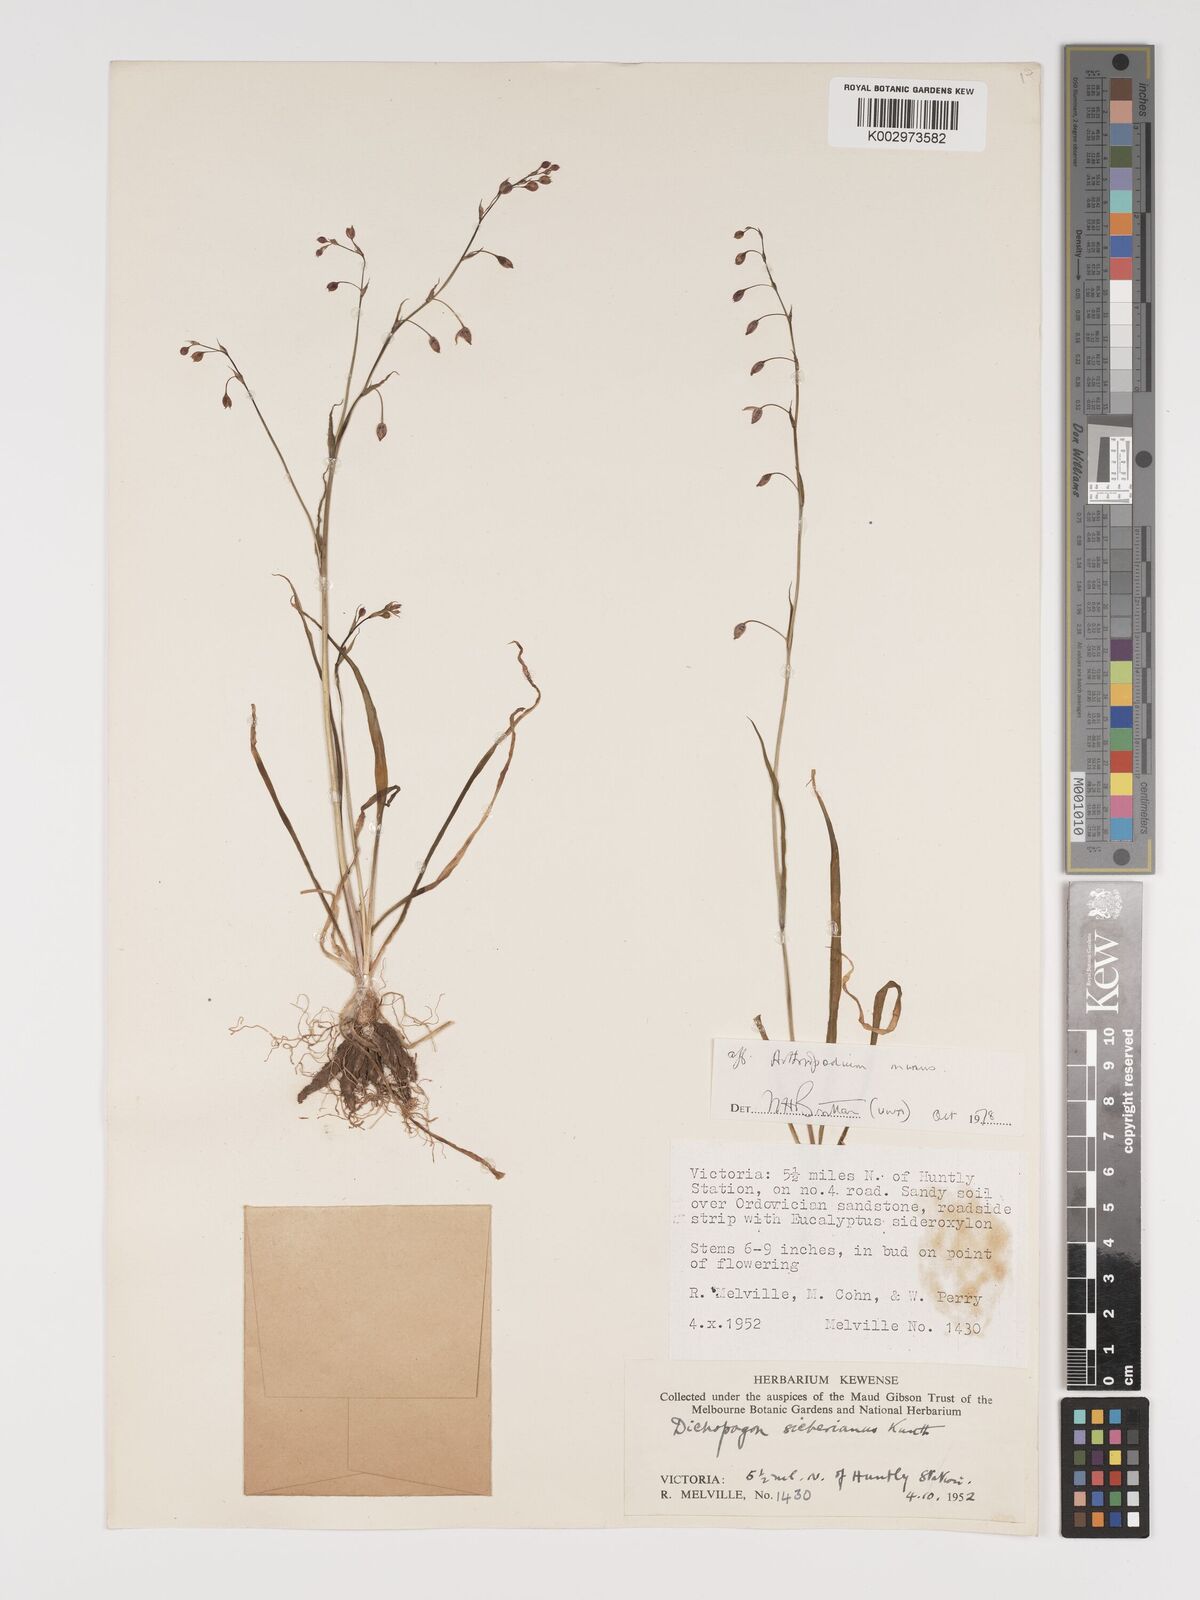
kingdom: Plantae
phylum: Tracheophyta
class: Liliopsida
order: Asparagales
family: Asparagaceae
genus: Arthropodium
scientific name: Arthropodium minus
